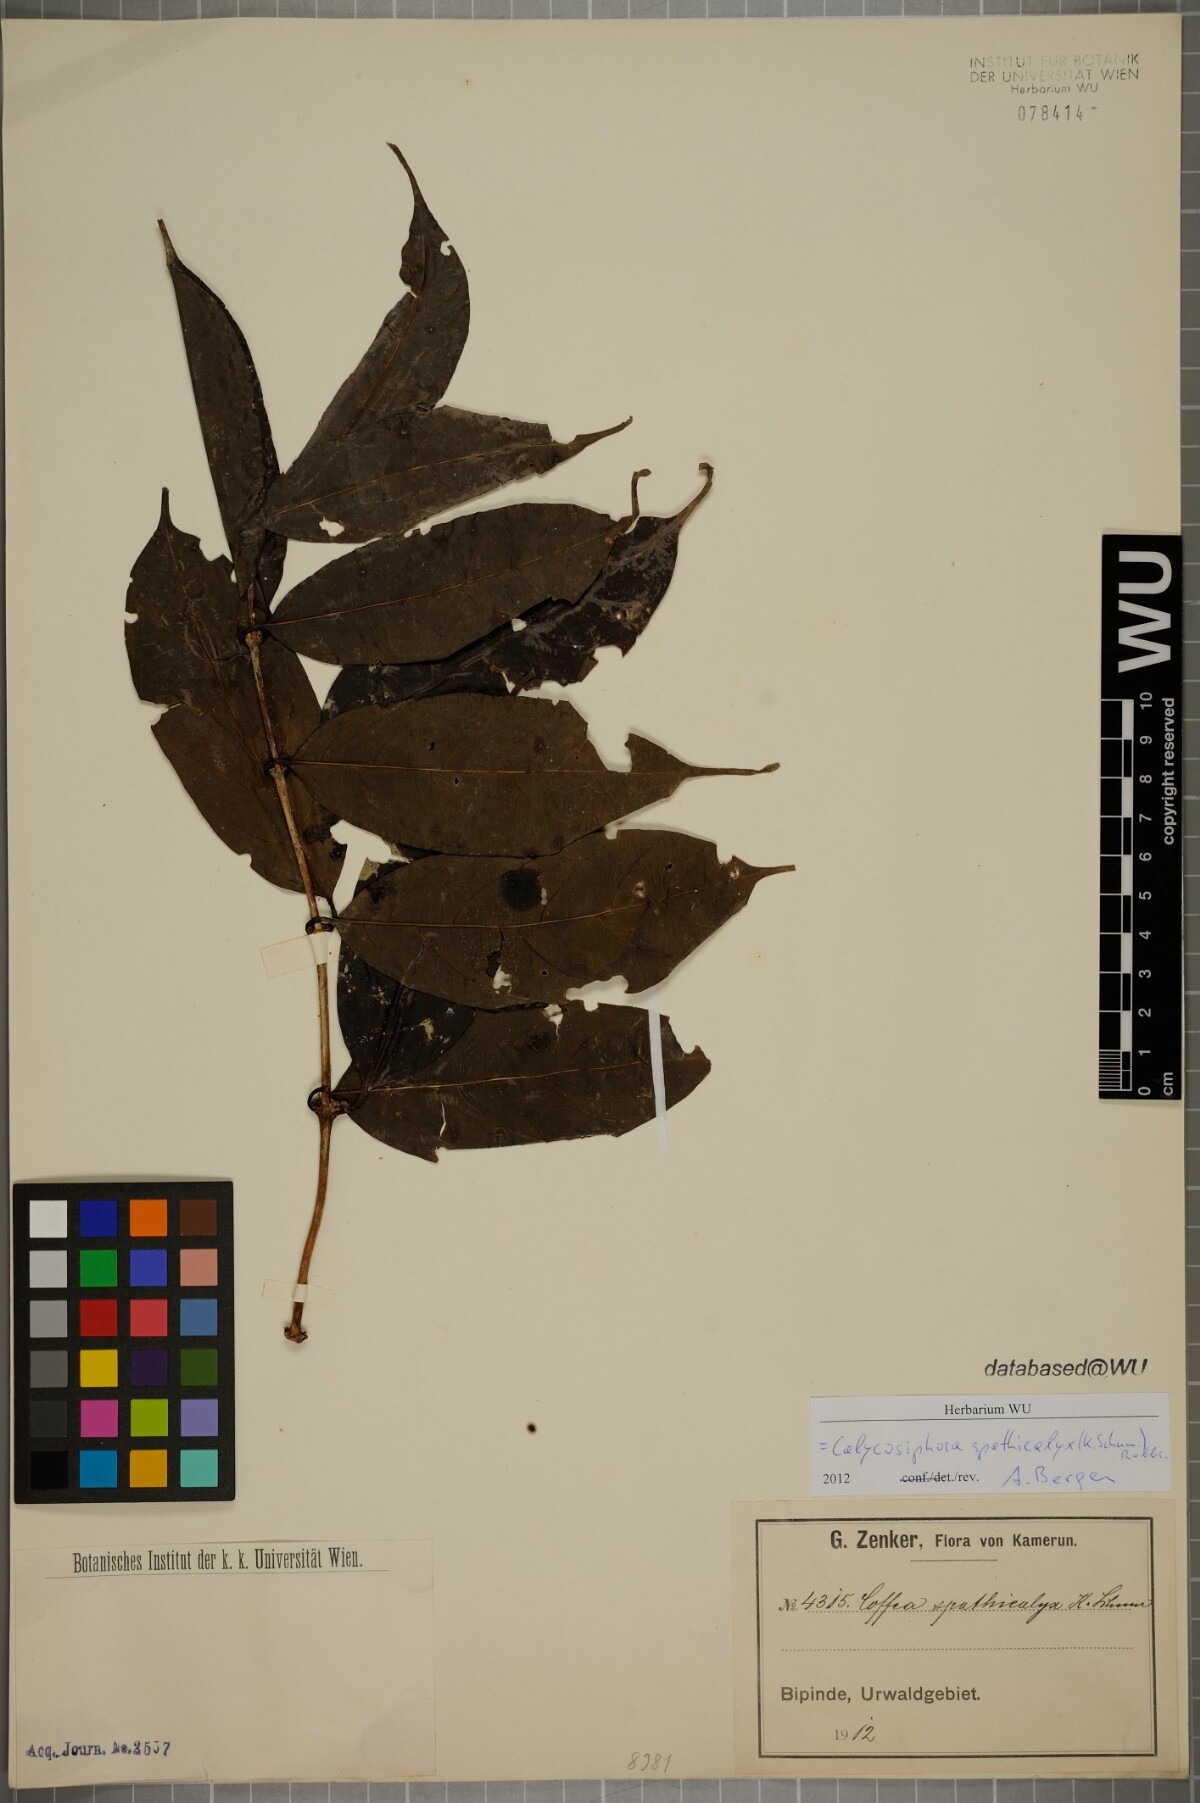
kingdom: Plantae
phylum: Tracheophyta
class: Magnoliopsida
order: Gentianales
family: Rubiaceae
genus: Calycosiphonia
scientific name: Calycosiphonia spathicalyx
